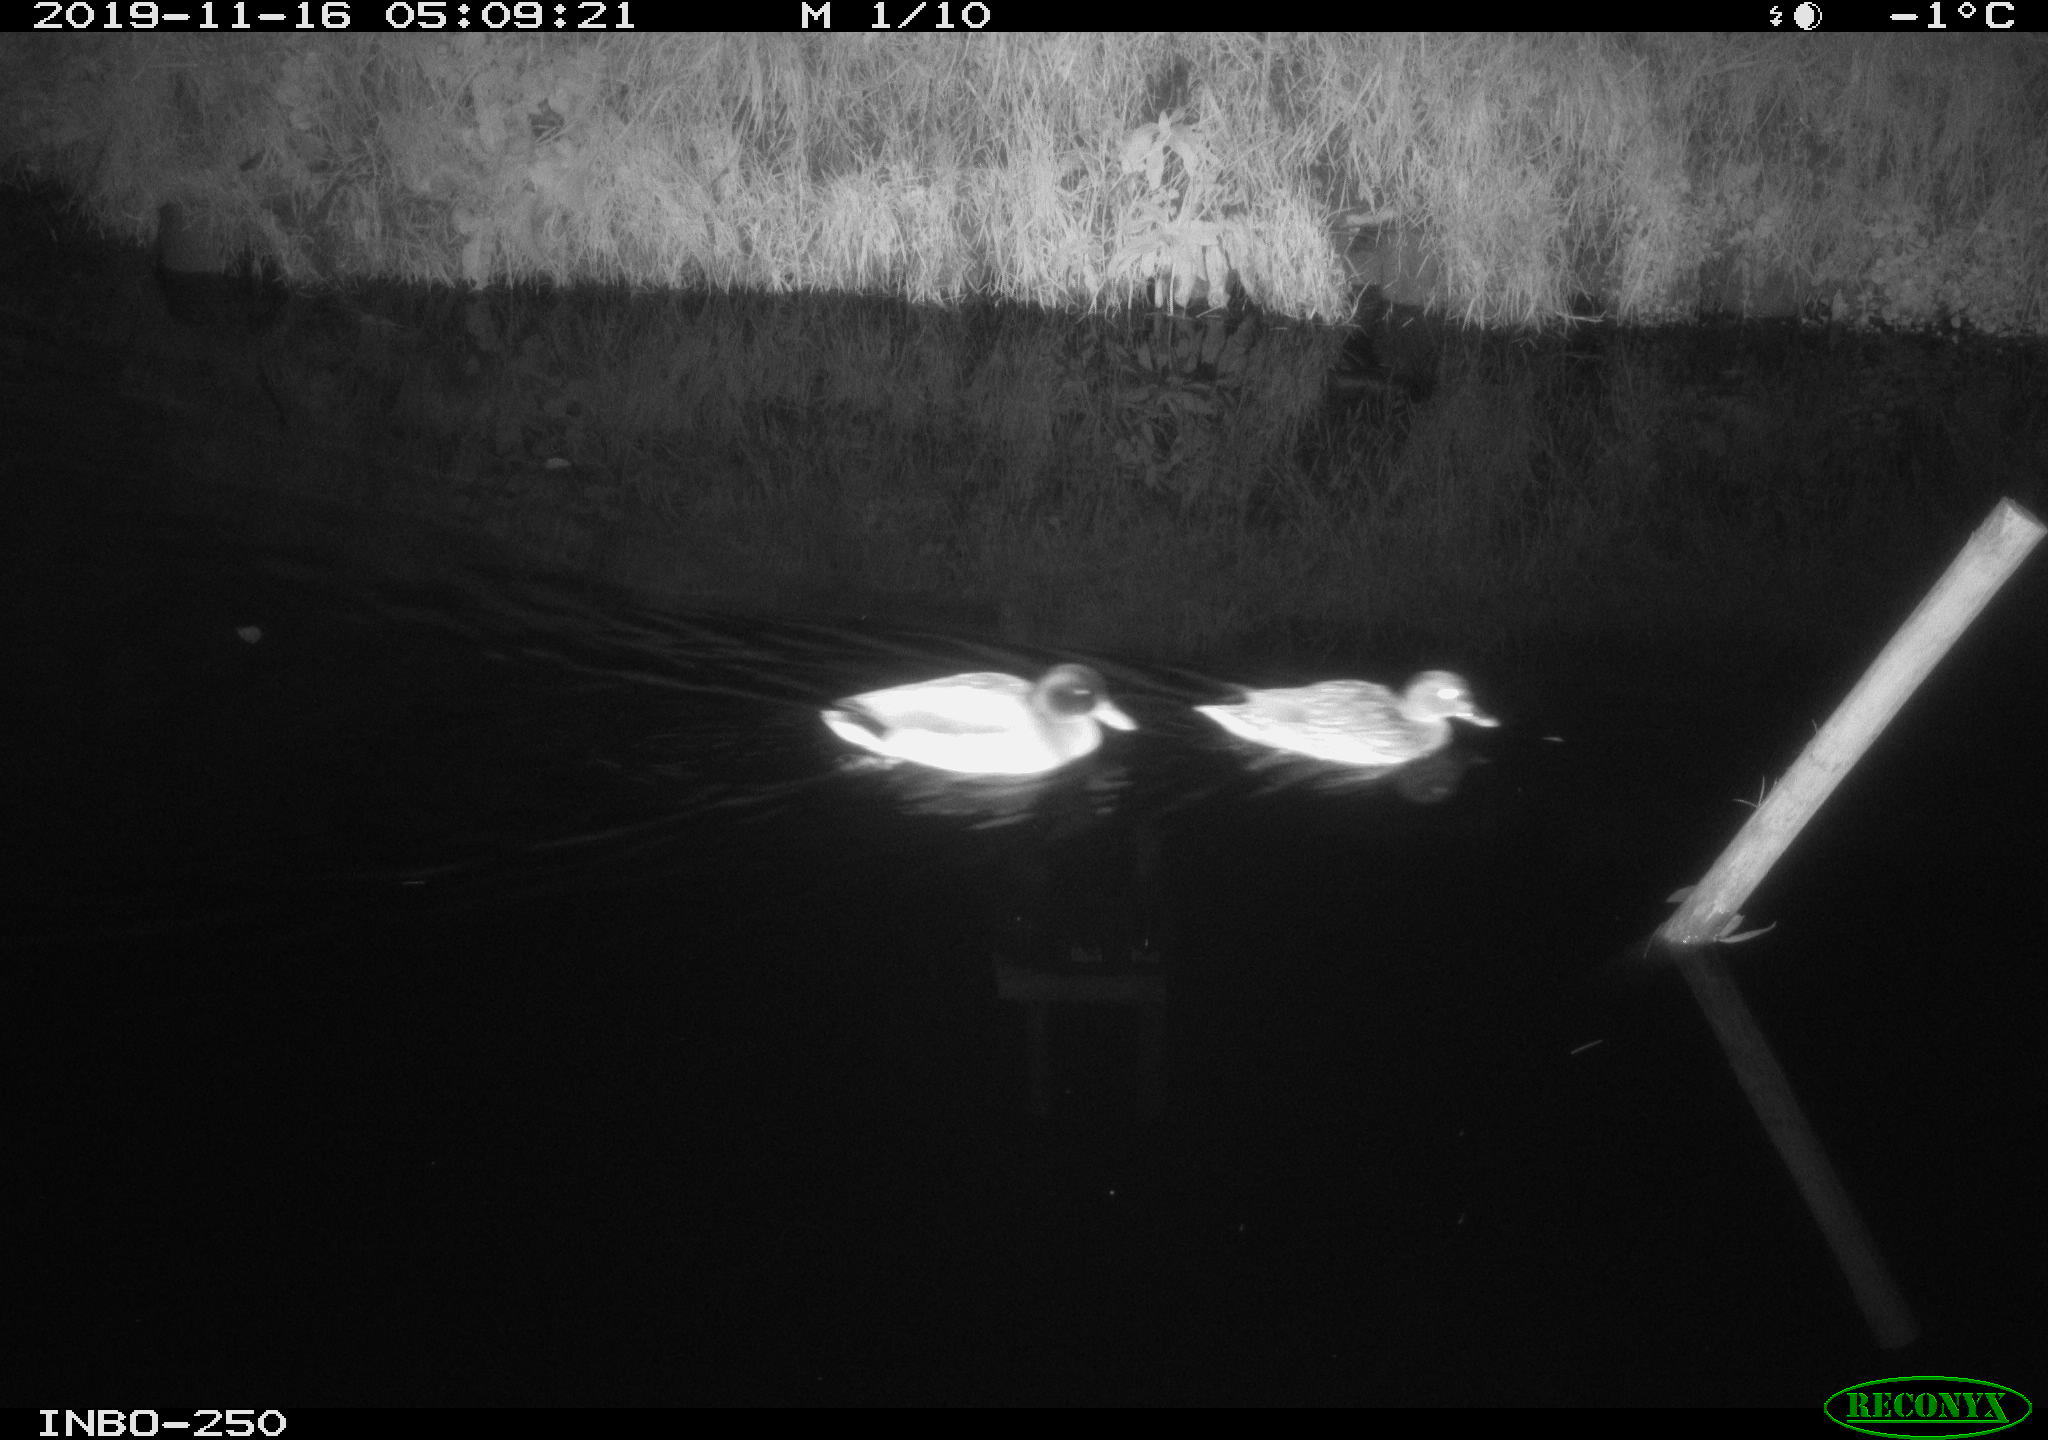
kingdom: Animalia
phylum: Chordata
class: Aves
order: Anseriformes
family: Anatidae
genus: Anas
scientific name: Anas platyrhynchos
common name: Mallard
